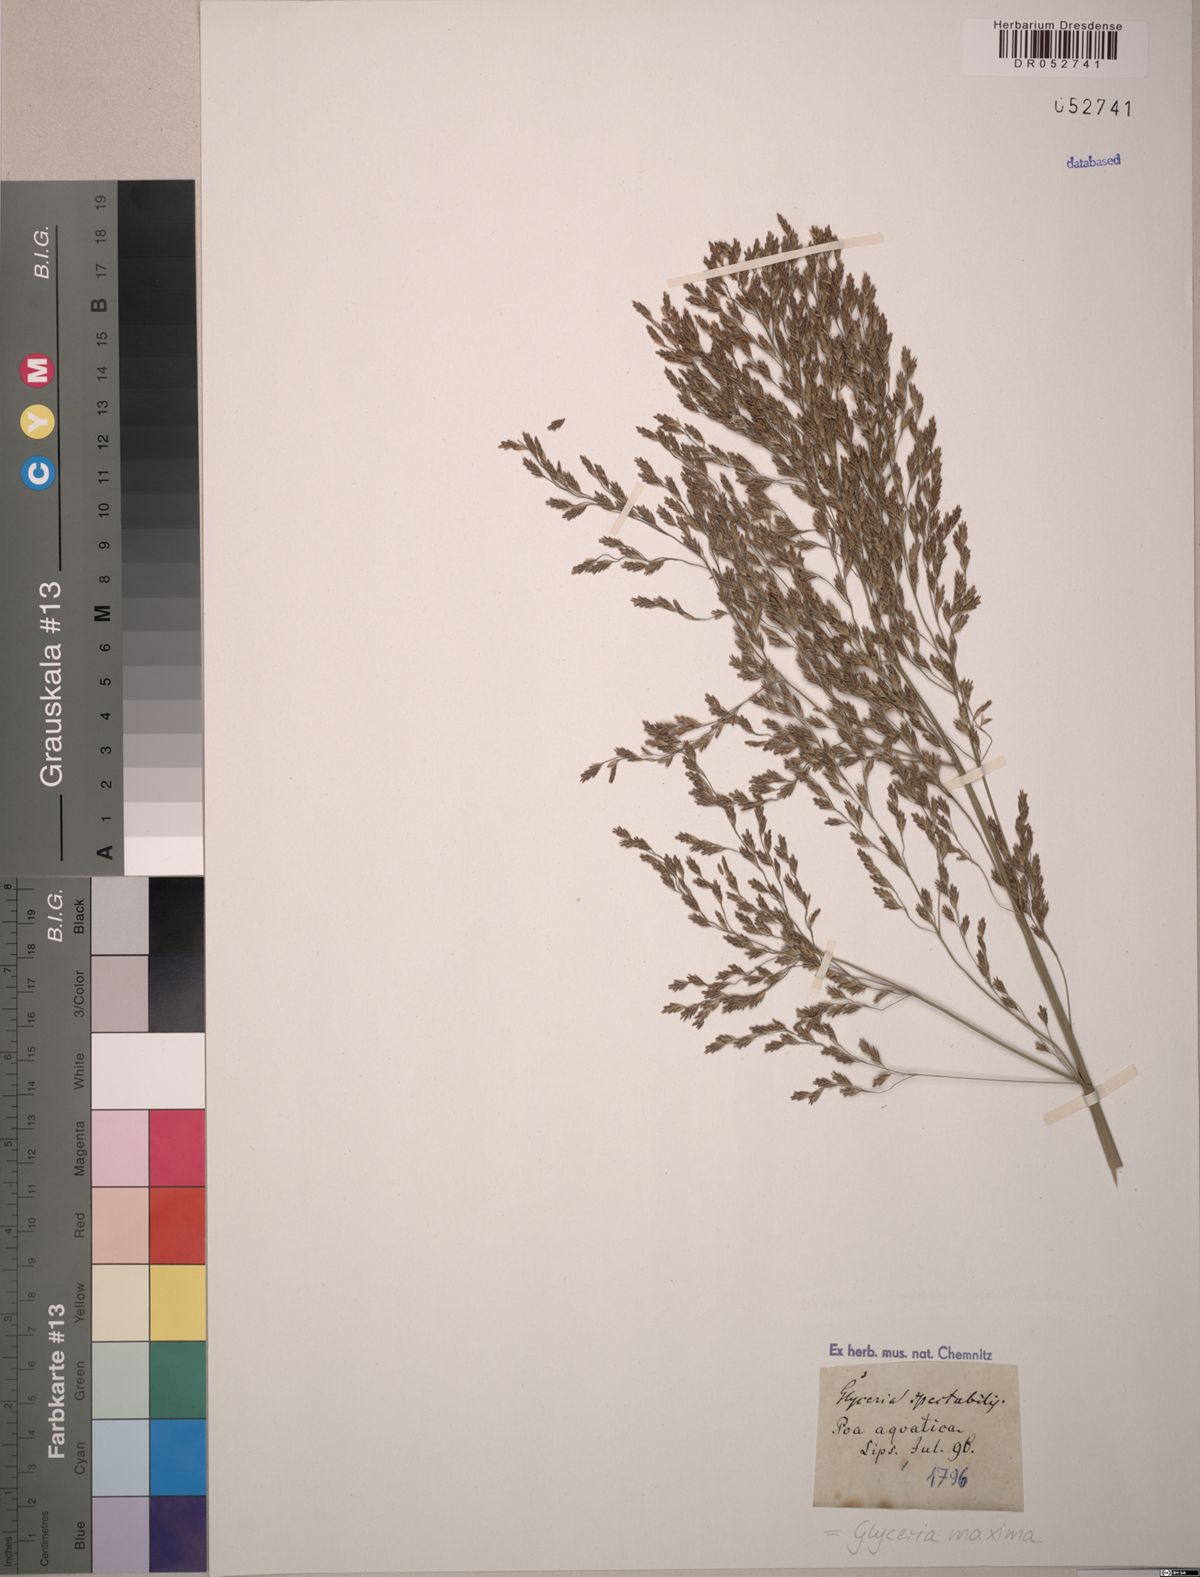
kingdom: Plantae
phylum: Tracheophyta
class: Liliopsida
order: Poales
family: Poaceae
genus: Glyceria
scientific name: Glyceria maxima
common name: Reed mannagrass
